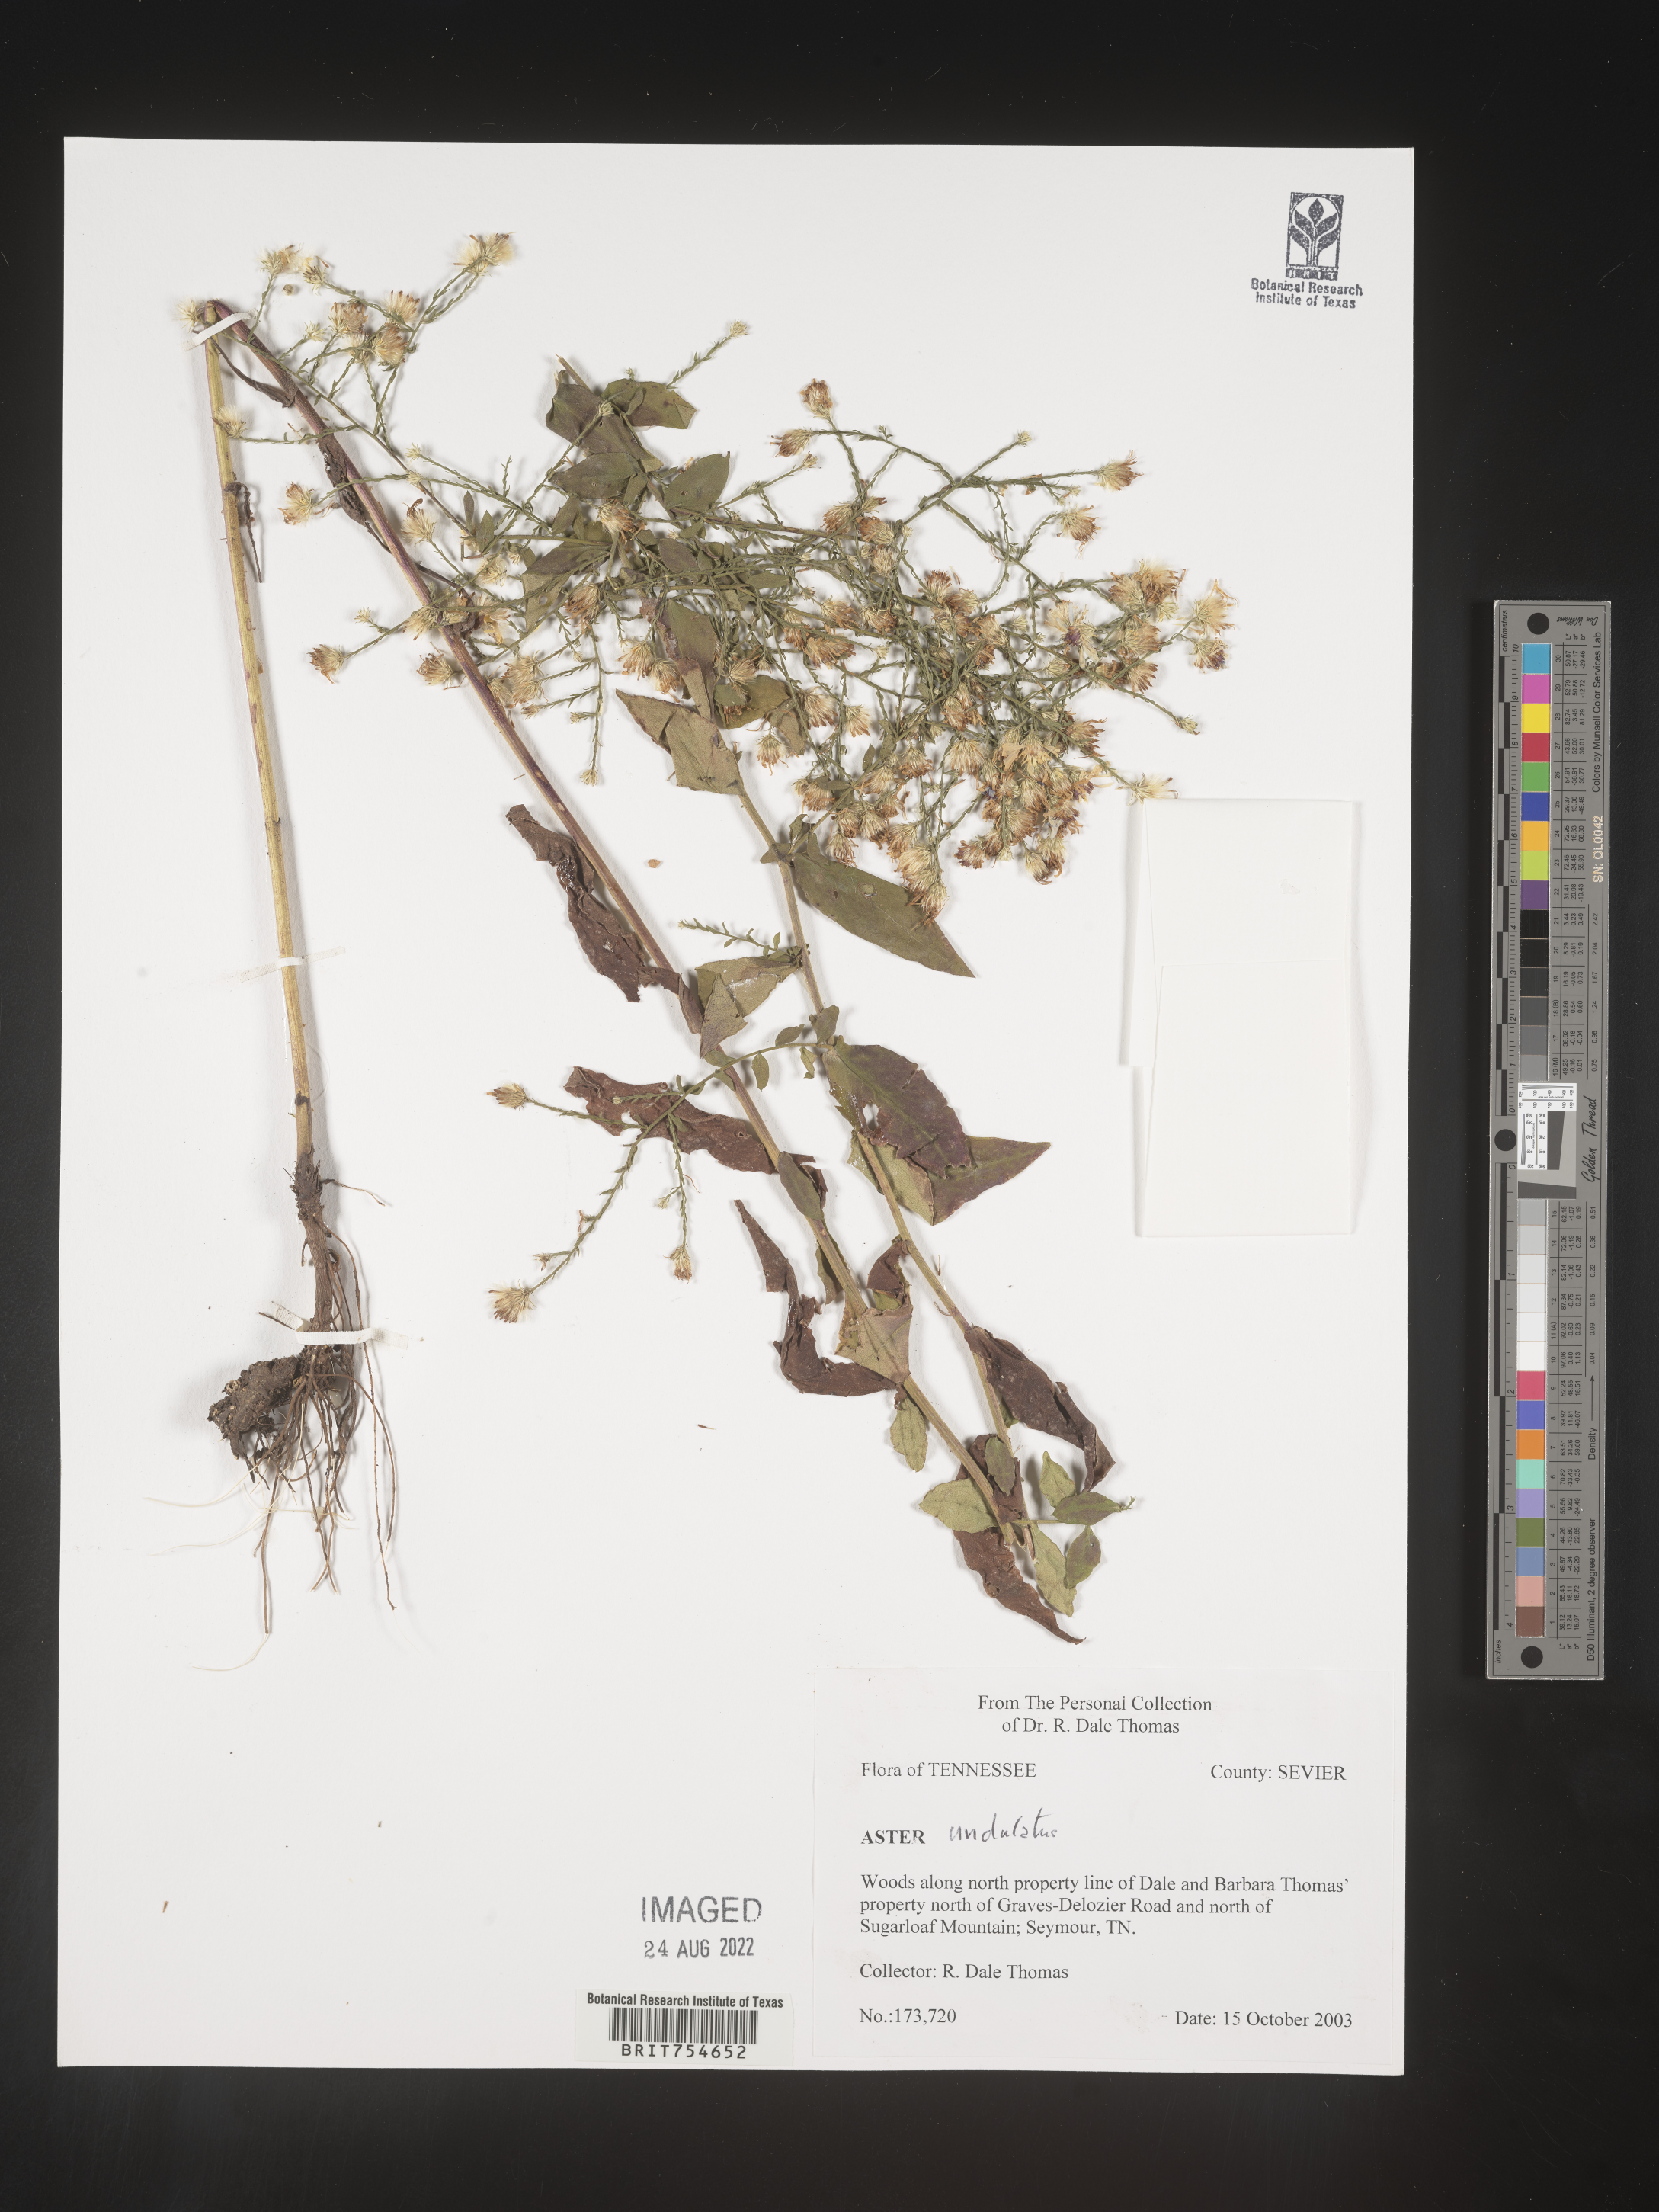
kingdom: Plantae
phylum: Tracheophyta
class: Magnoliopsida
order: Asterales
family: Asteraceae
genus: Symphyotrichum
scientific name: Symphyotrichum undulatum
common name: Clasping heart-leaf aster
